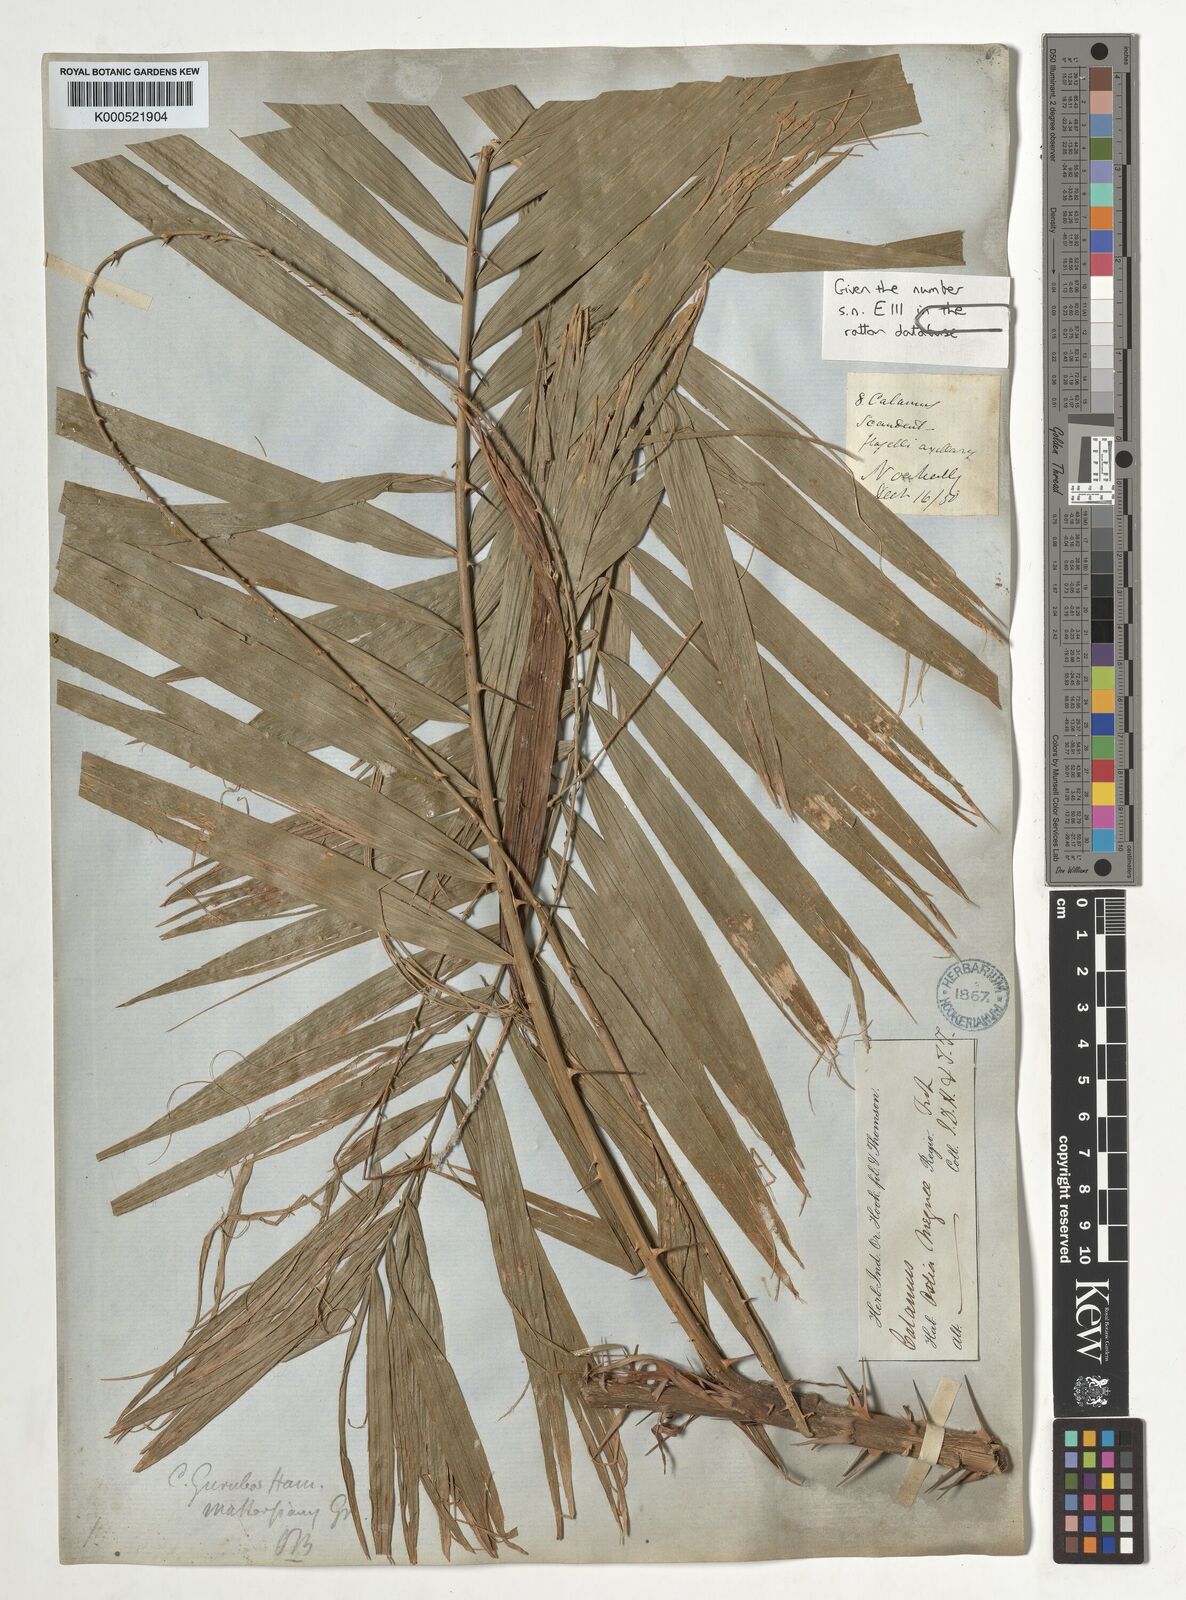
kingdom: Plantae
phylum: Tracheophyta
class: Liliopsida
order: Arecales
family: Arecaceae
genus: Calamus
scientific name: Calamus
